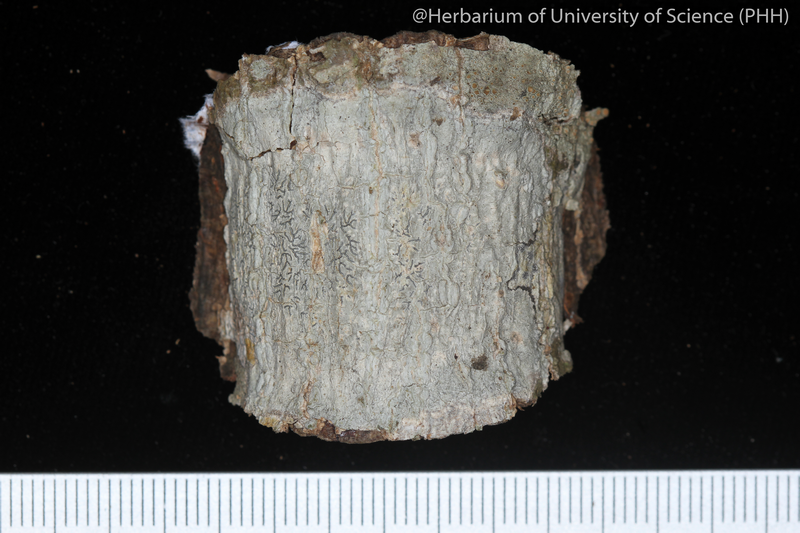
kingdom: Fungi
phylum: Ascomycota
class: Lecanoromycetes
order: Ostropales
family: Graphidaceae
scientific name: Graphidaceae
